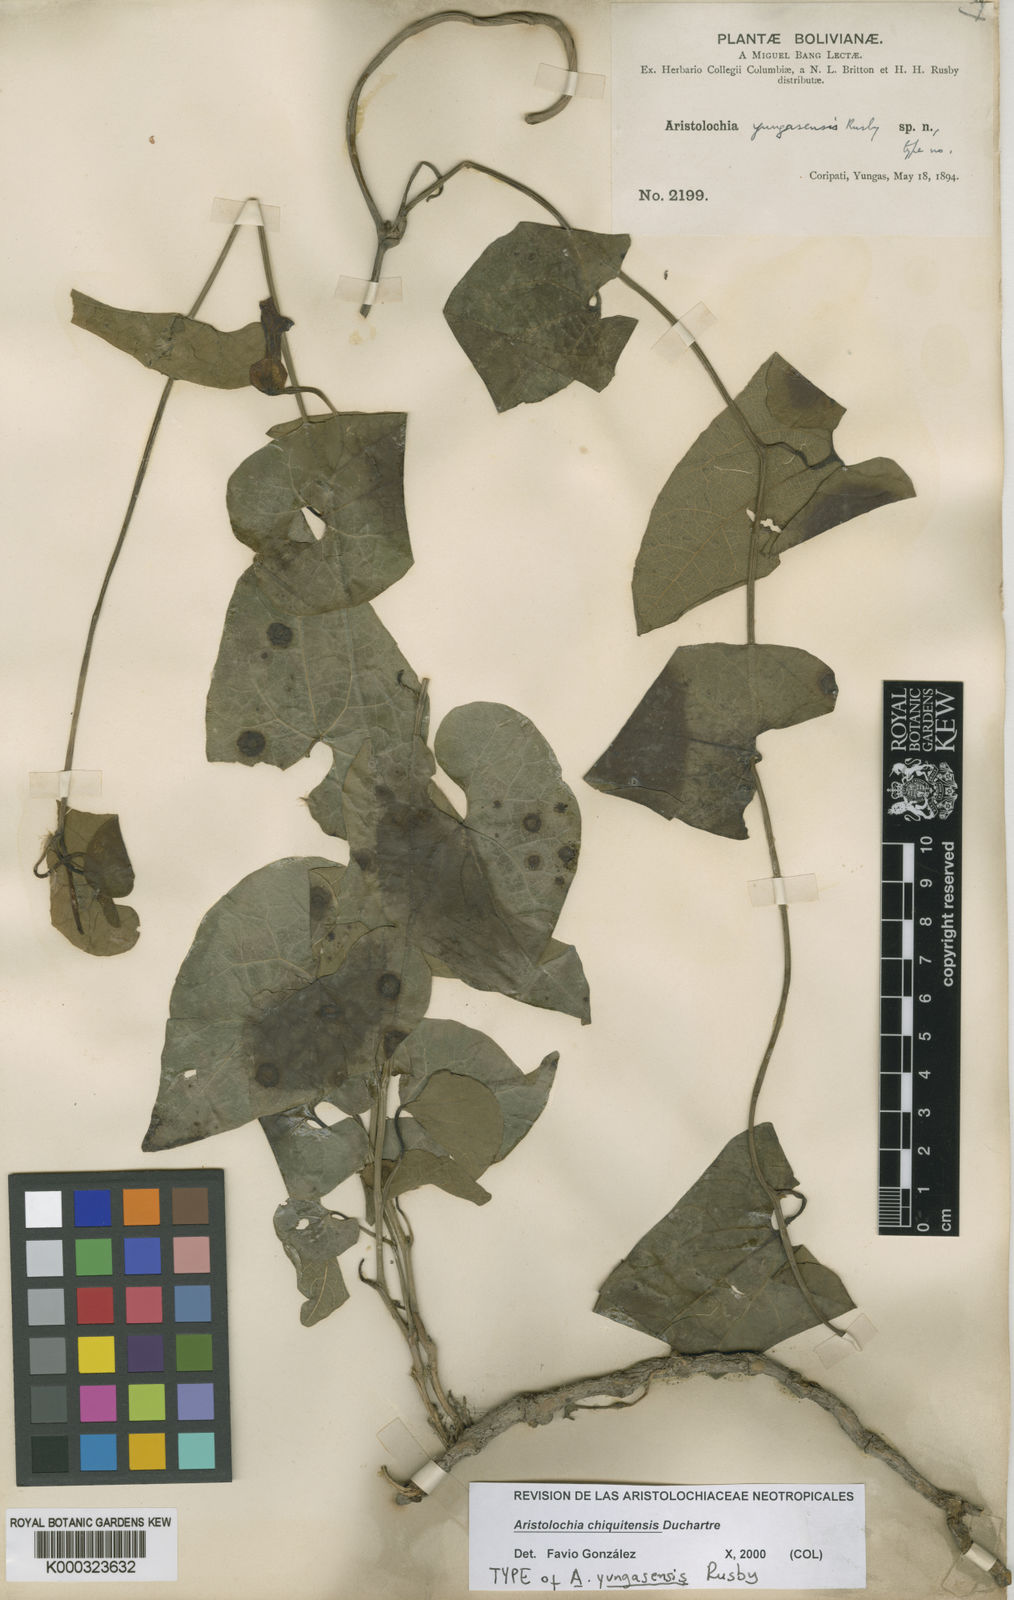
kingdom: Plantae
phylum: Tracheophyta
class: Magnoliopsida
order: Piperales
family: Aristolochiaceae
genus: Aristolochia
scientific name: Aristolochia chiquitensis
